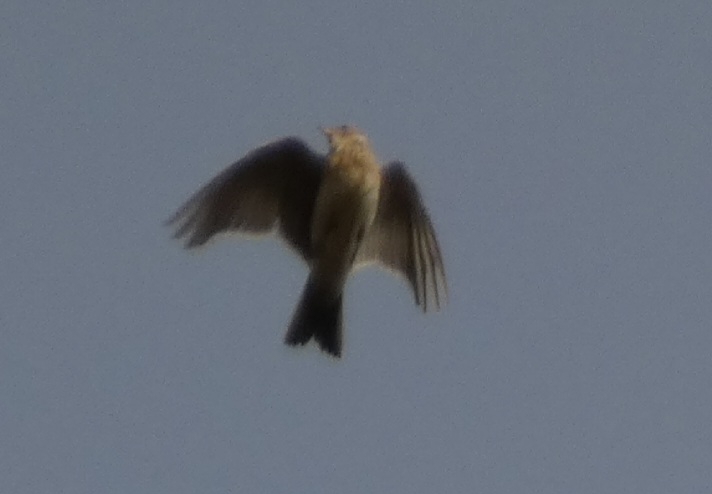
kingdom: Animalia
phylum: Chordata
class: Aves
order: Passeriformes
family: Alaudidae
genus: Alauda
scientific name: Alauda arvensis
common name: Sanglærke
